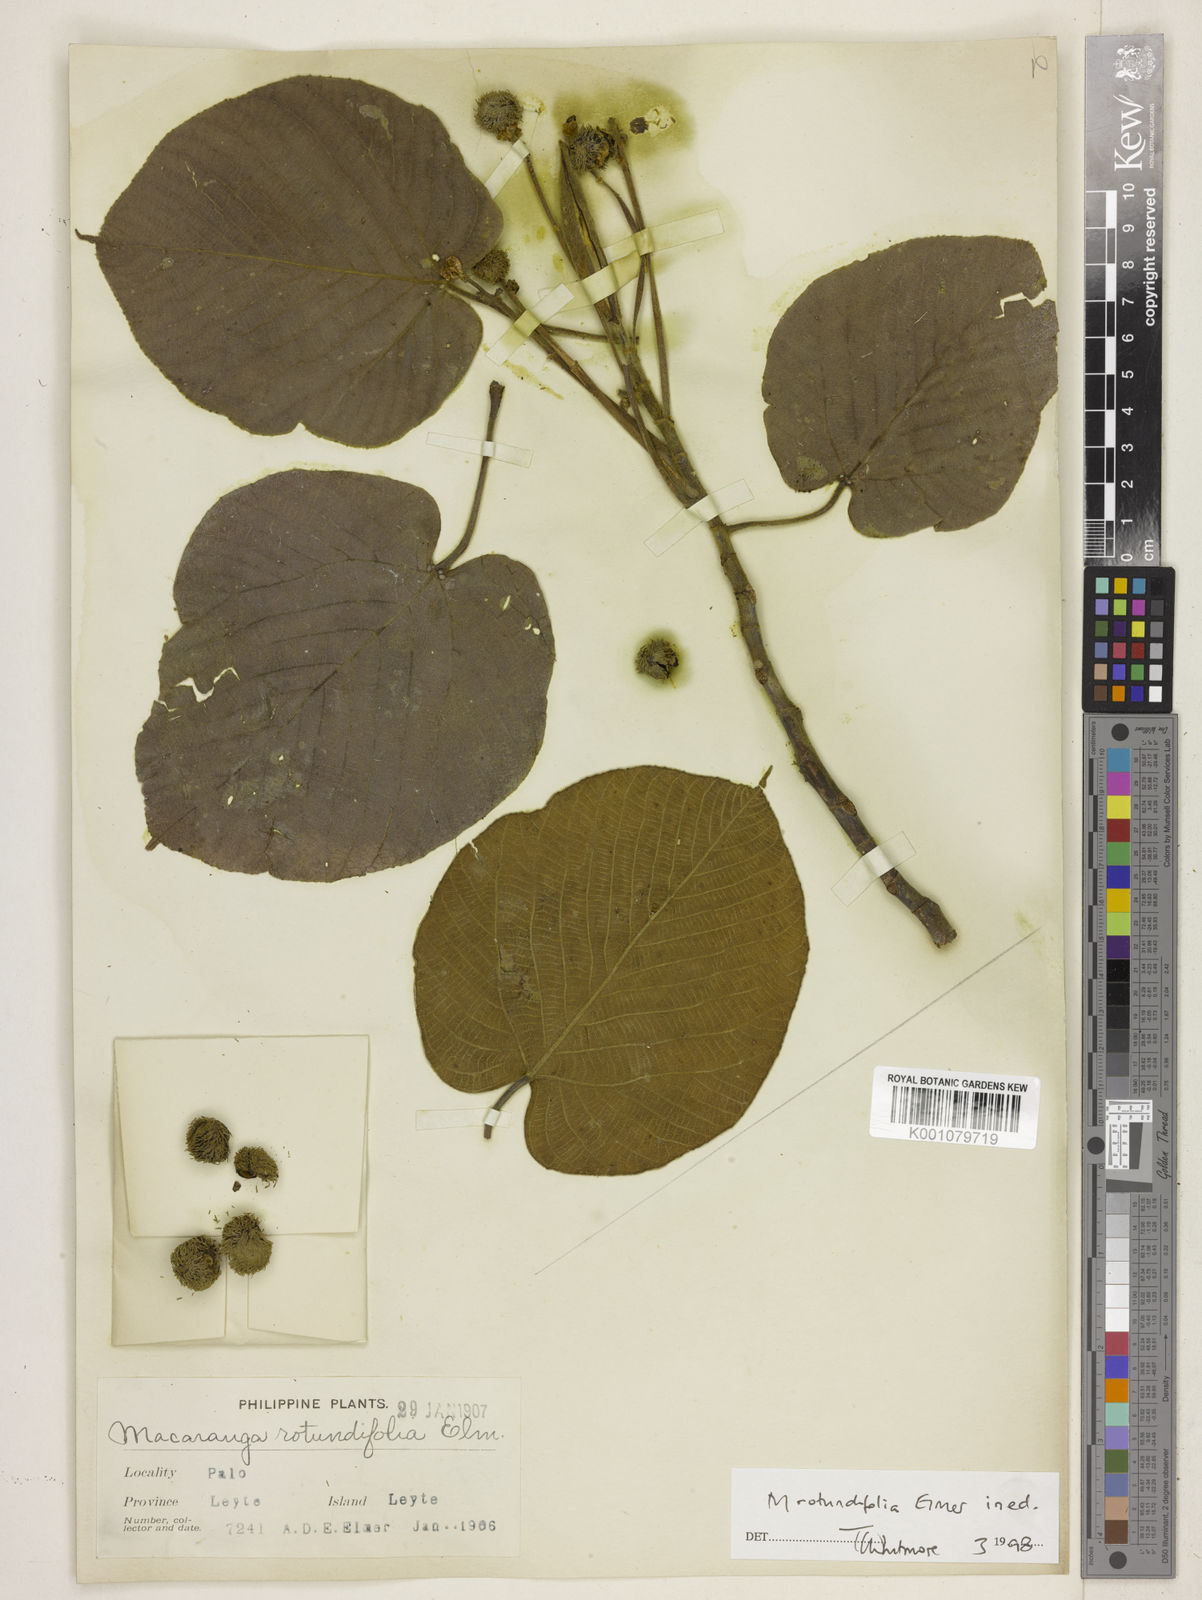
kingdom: Plantae
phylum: Tracheophyta
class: Magnoliopsida
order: Malpighiales
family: Euphorbiaceae
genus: Macaranga
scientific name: Macaranga
